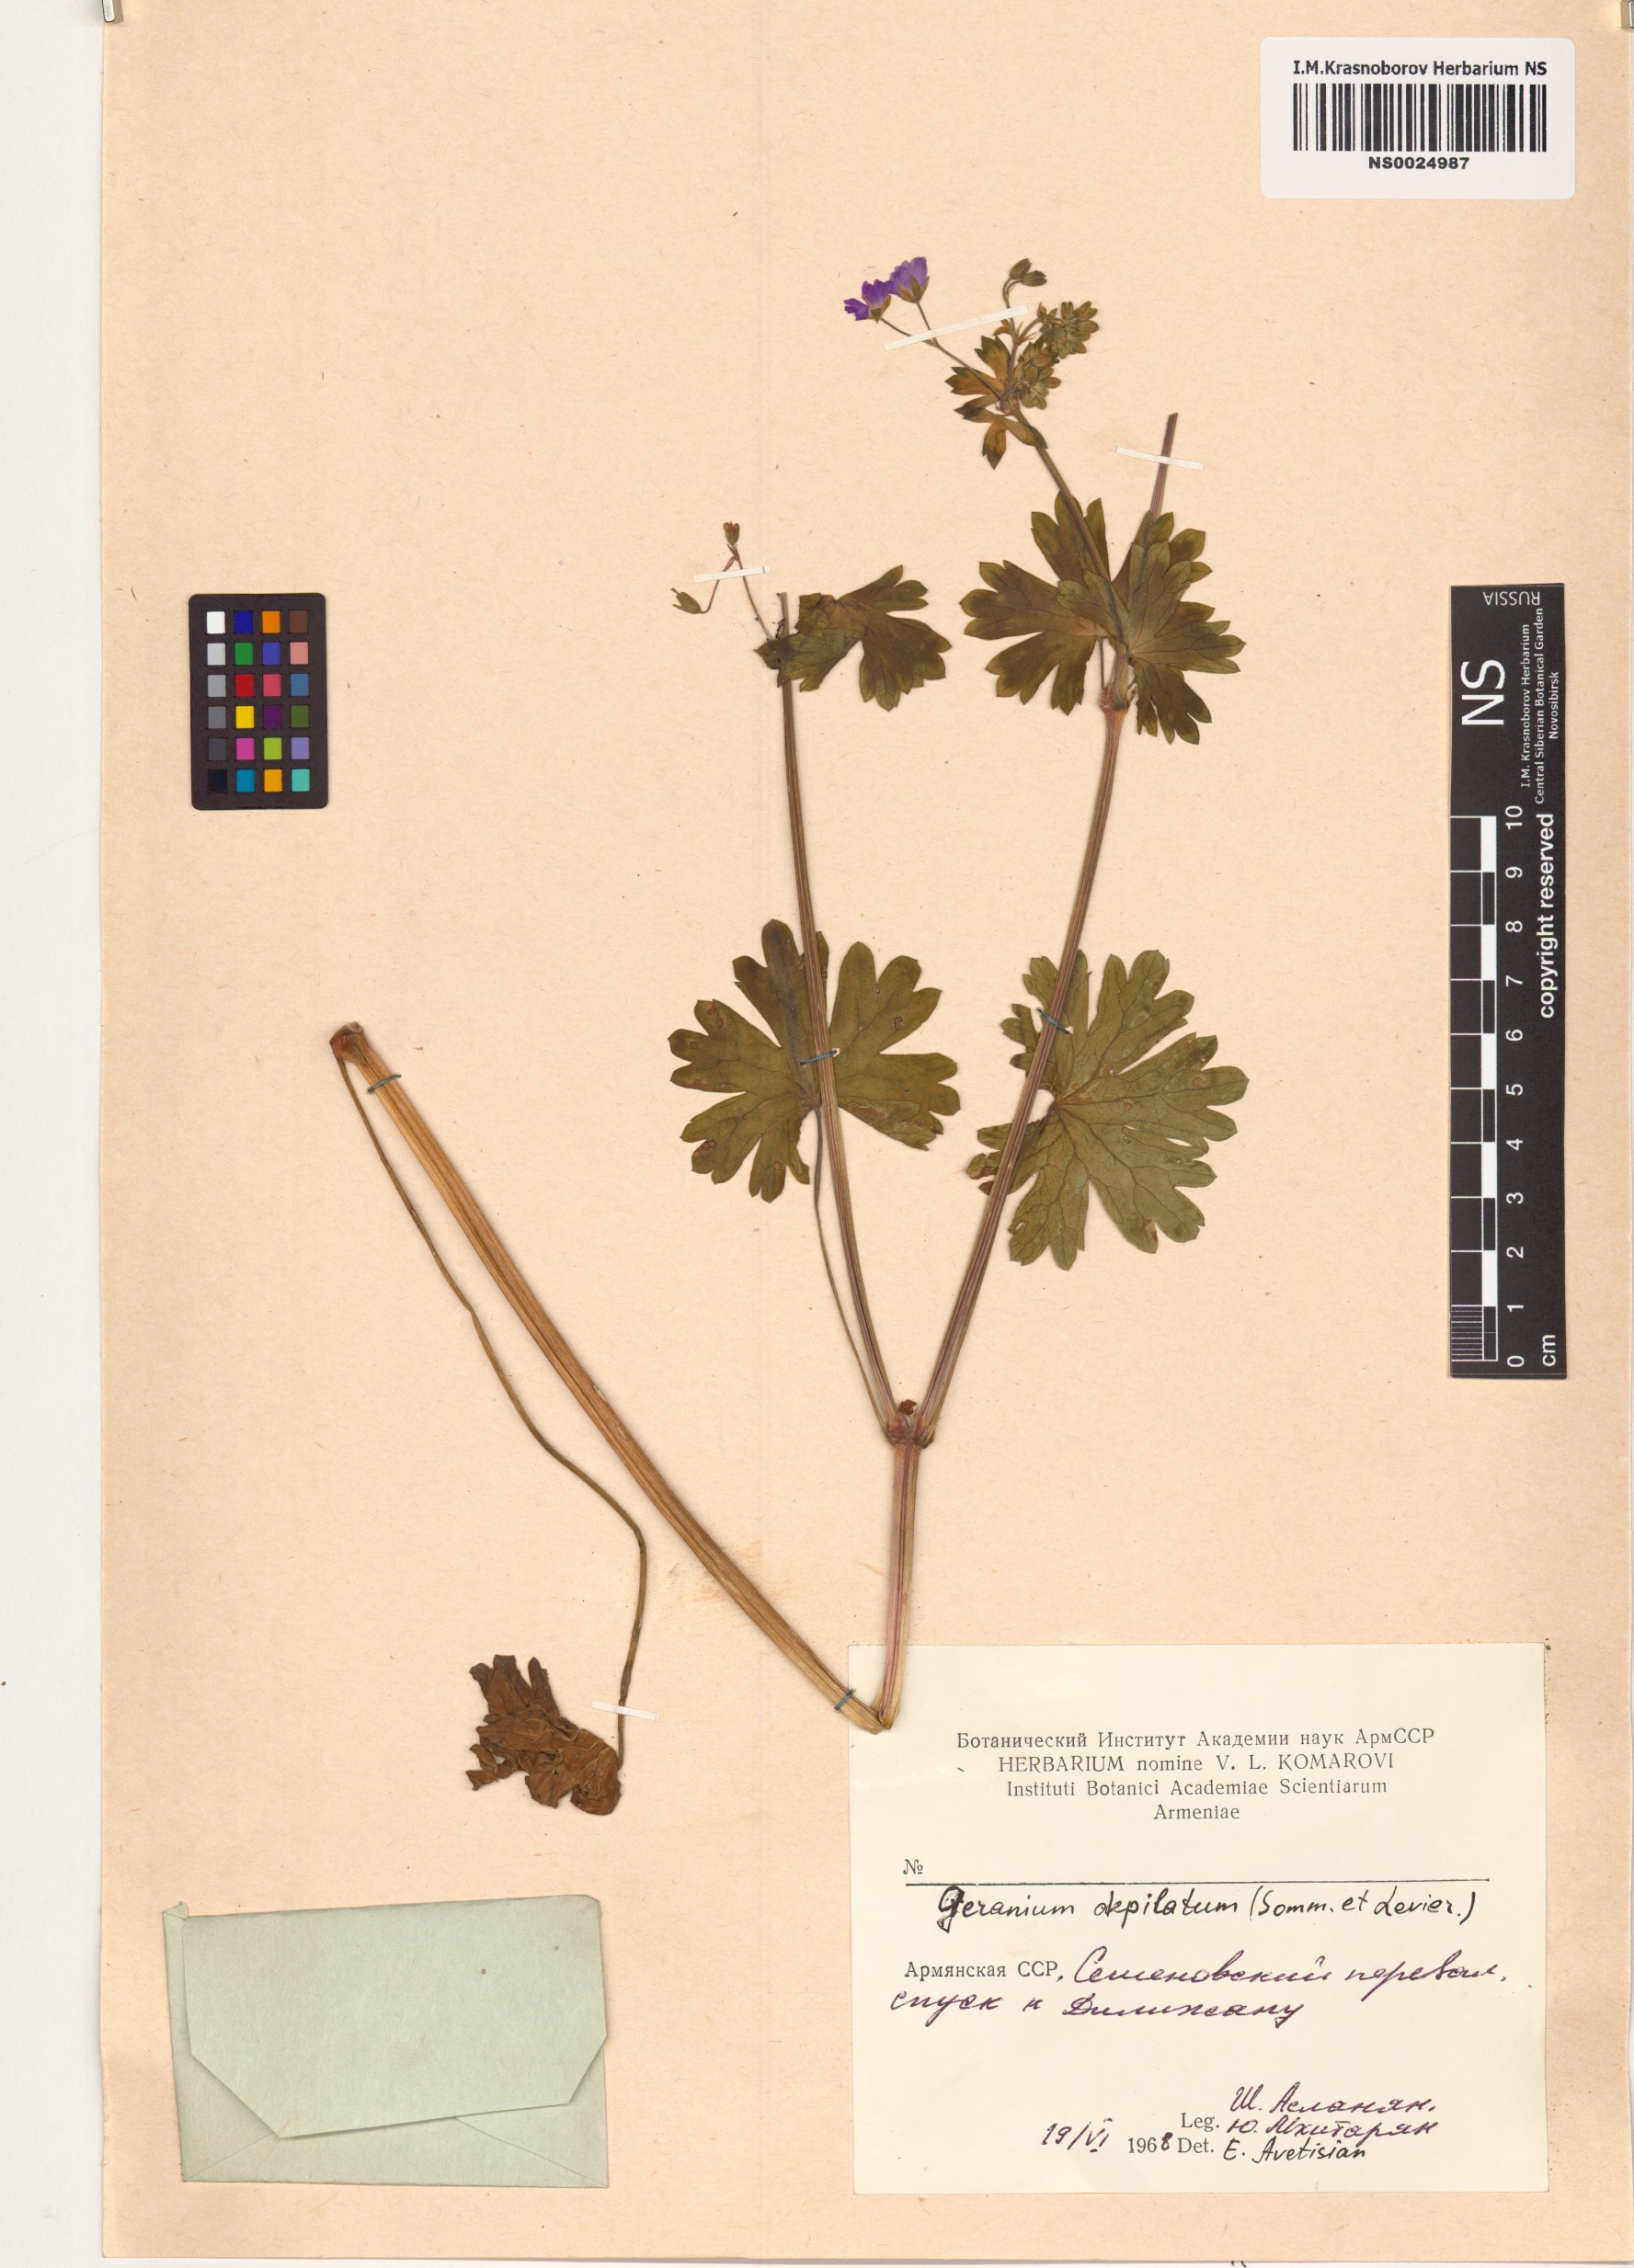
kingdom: Plantae
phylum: Tracheophyta
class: Magnoliopsida
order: Geraniales
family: Geraniaceae
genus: Geranium
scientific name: Geranium pyrenaicum
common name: Hedgerow crane's-bill
